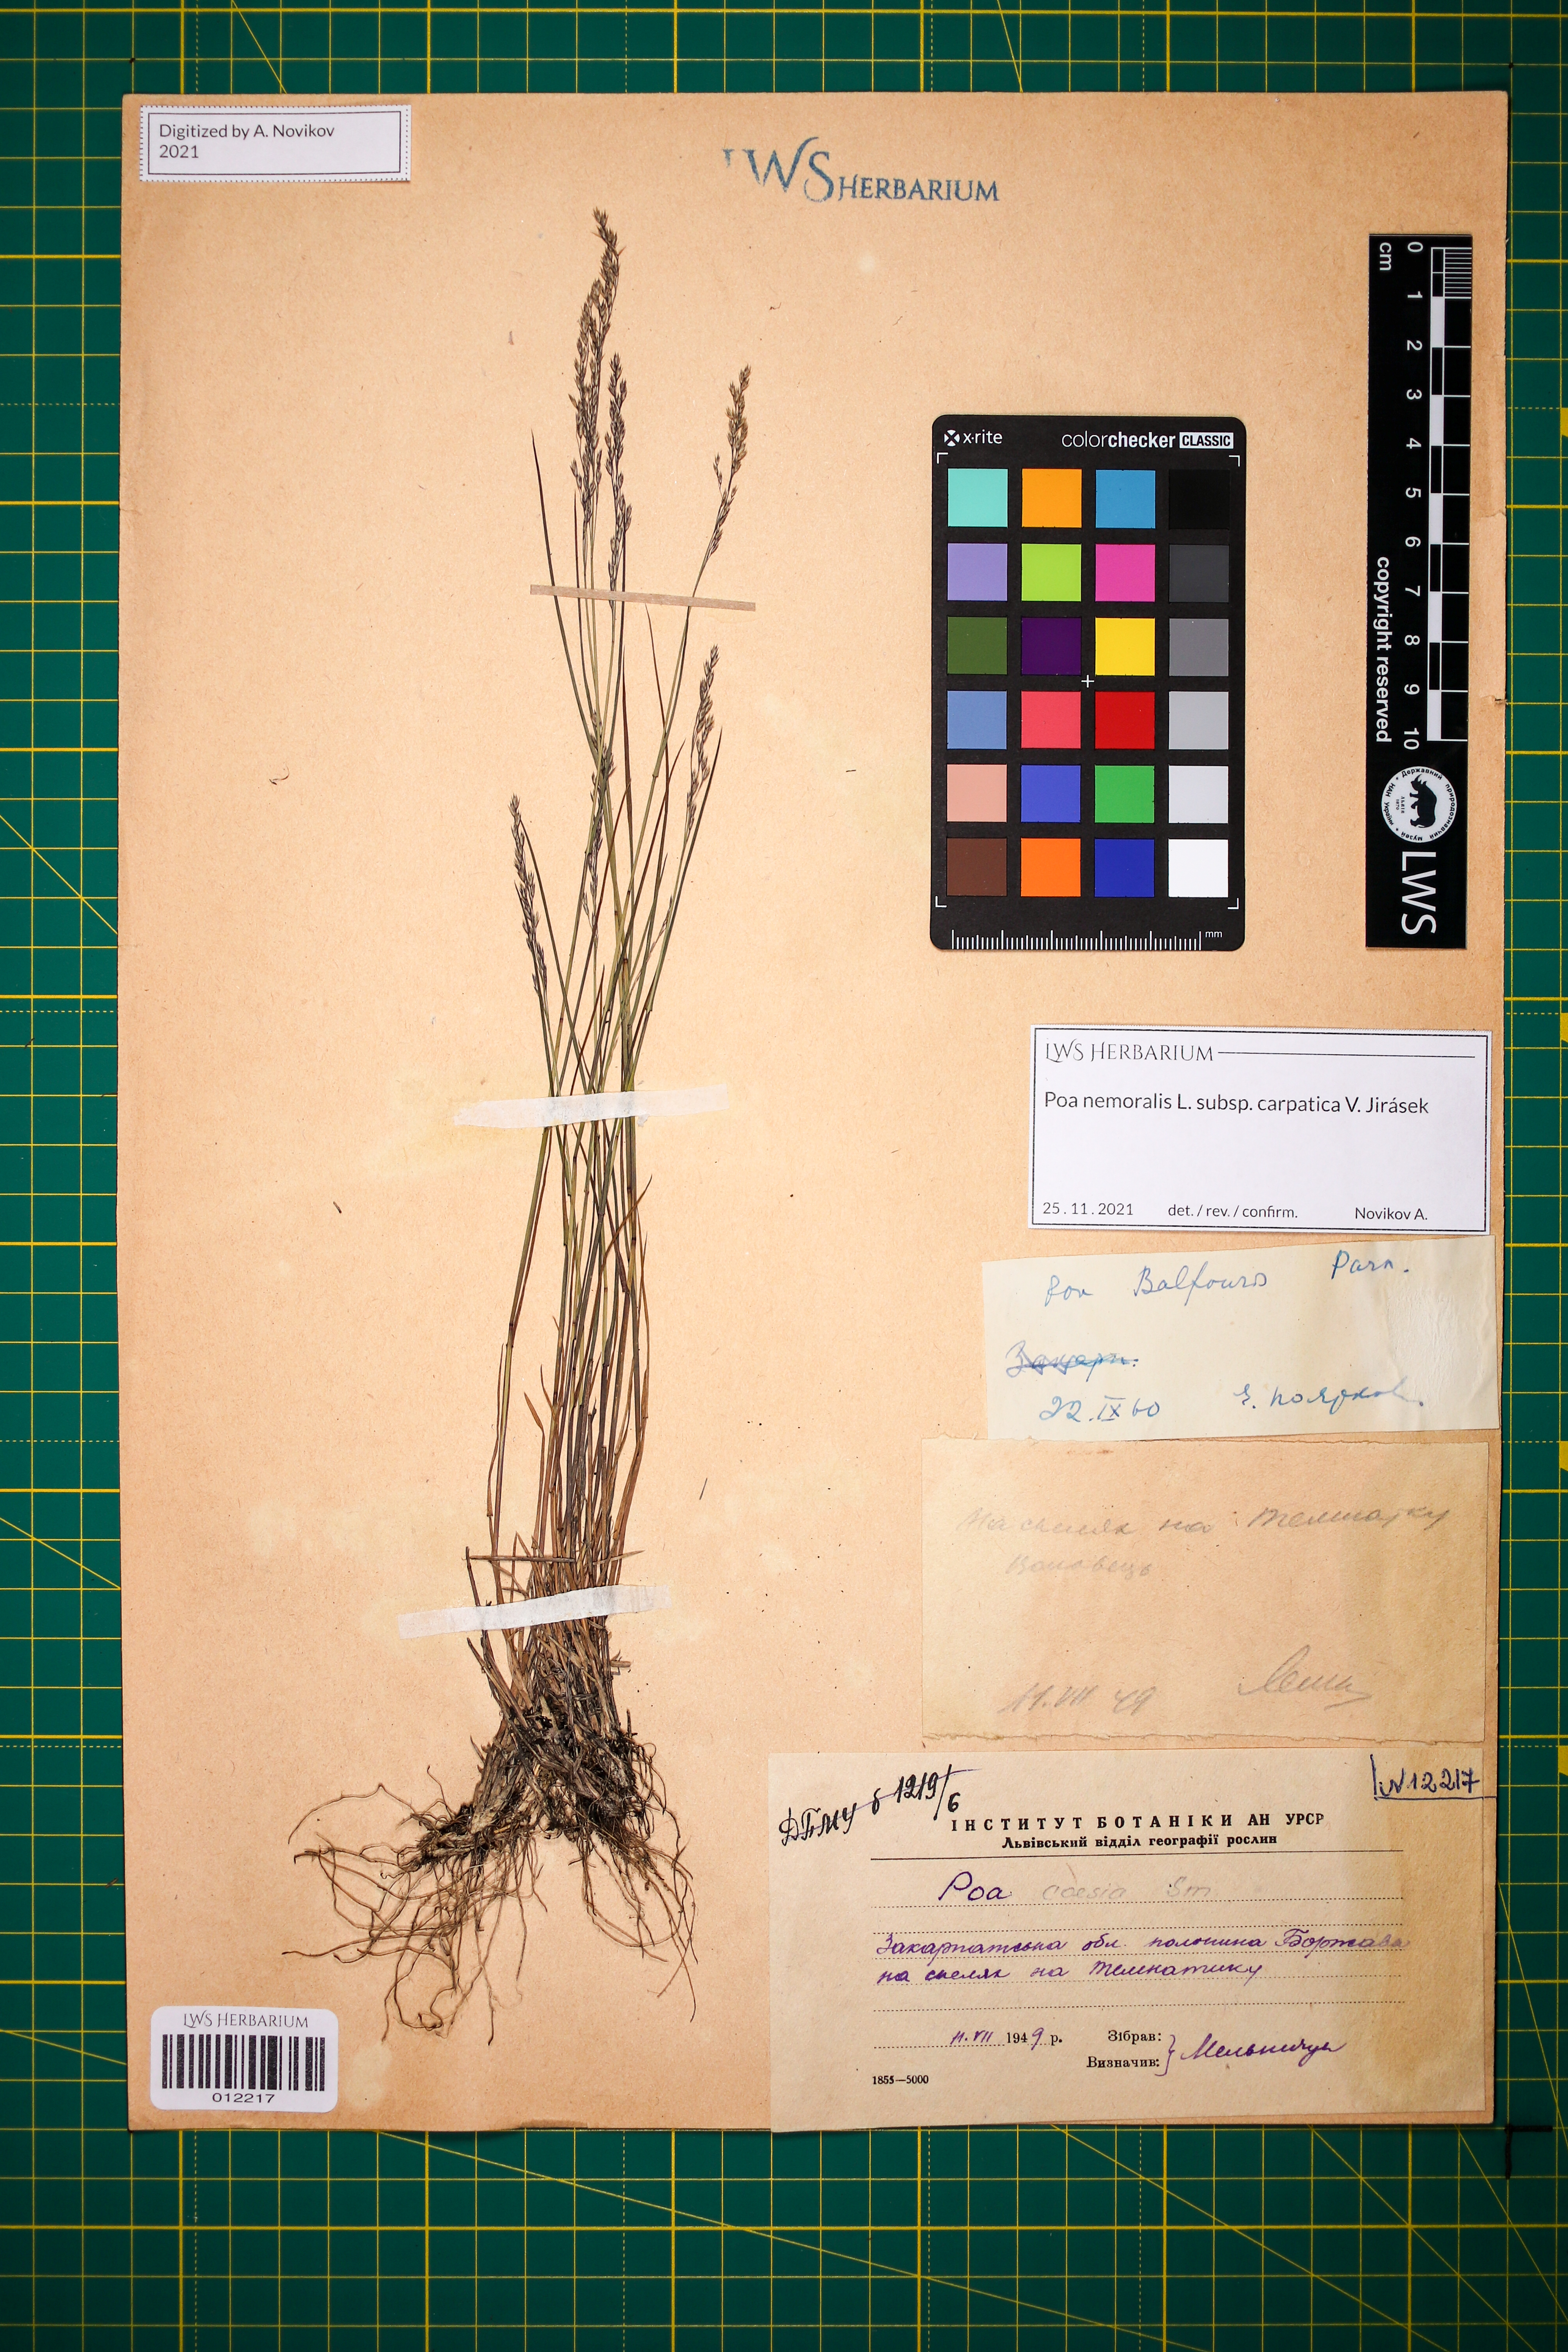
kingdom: Plantae
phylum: Tracheophyta
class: Liliopsida
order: Poales
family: Poaceae
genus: Poa
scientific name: Poa carpatica
